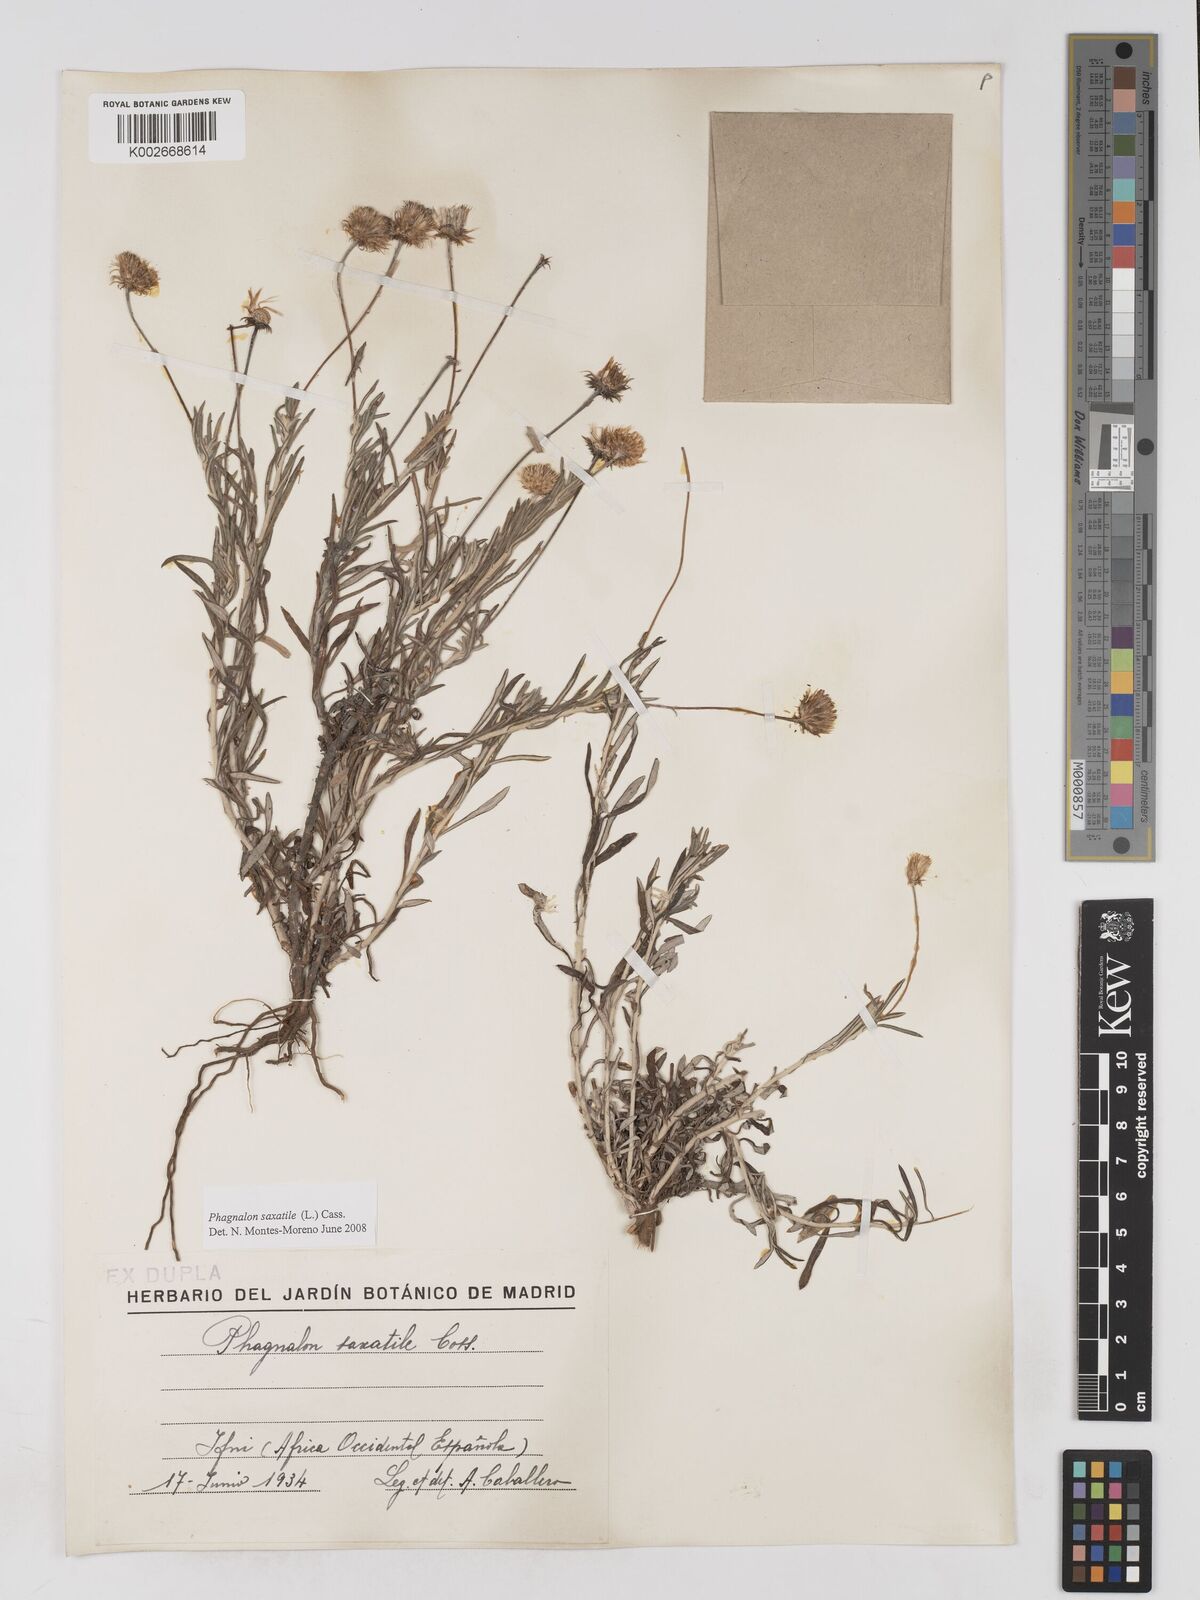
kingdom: Plantae
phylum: Tracheophyta
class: Magnoliopsida
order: Asterales
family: Asteraceae
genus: Phagnalon
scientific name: Phagnalon saxatile
